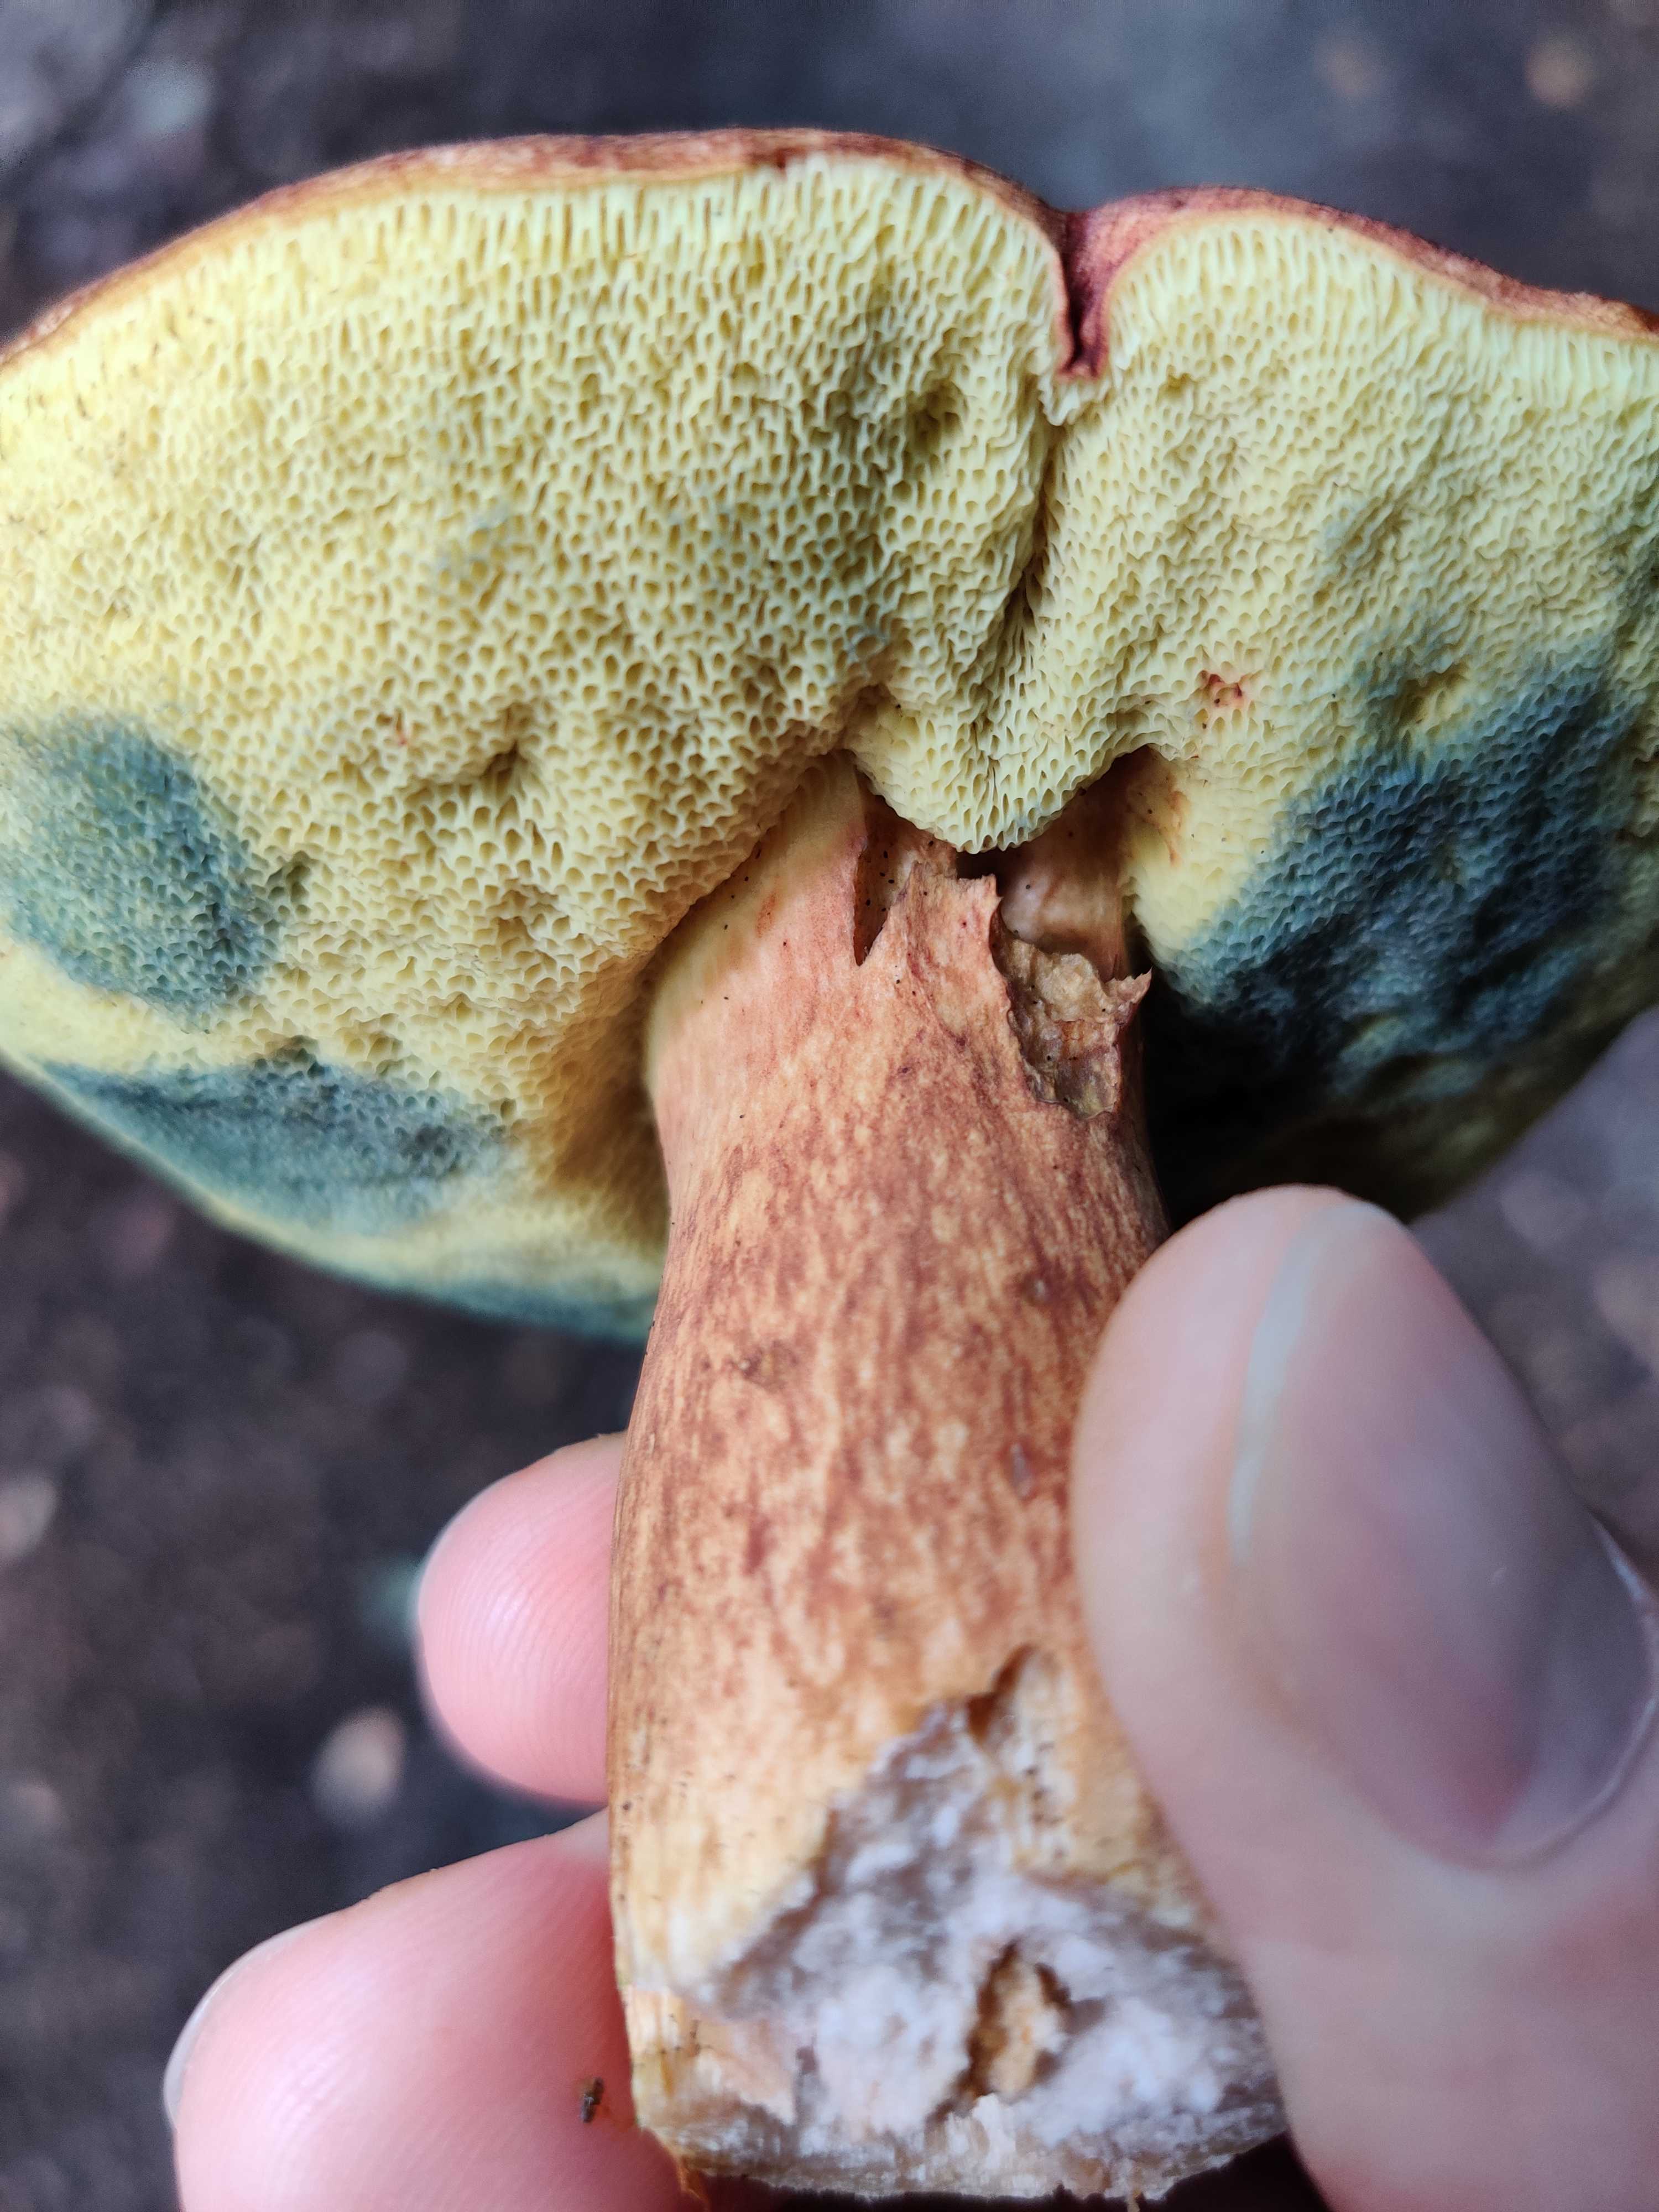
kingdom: Fungi
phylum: Basidiomycota
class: Agaricomycetes
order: Boletales
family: Boletaceae
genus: Imleria
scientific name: Imleria badia
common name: brunstokket rørhat
